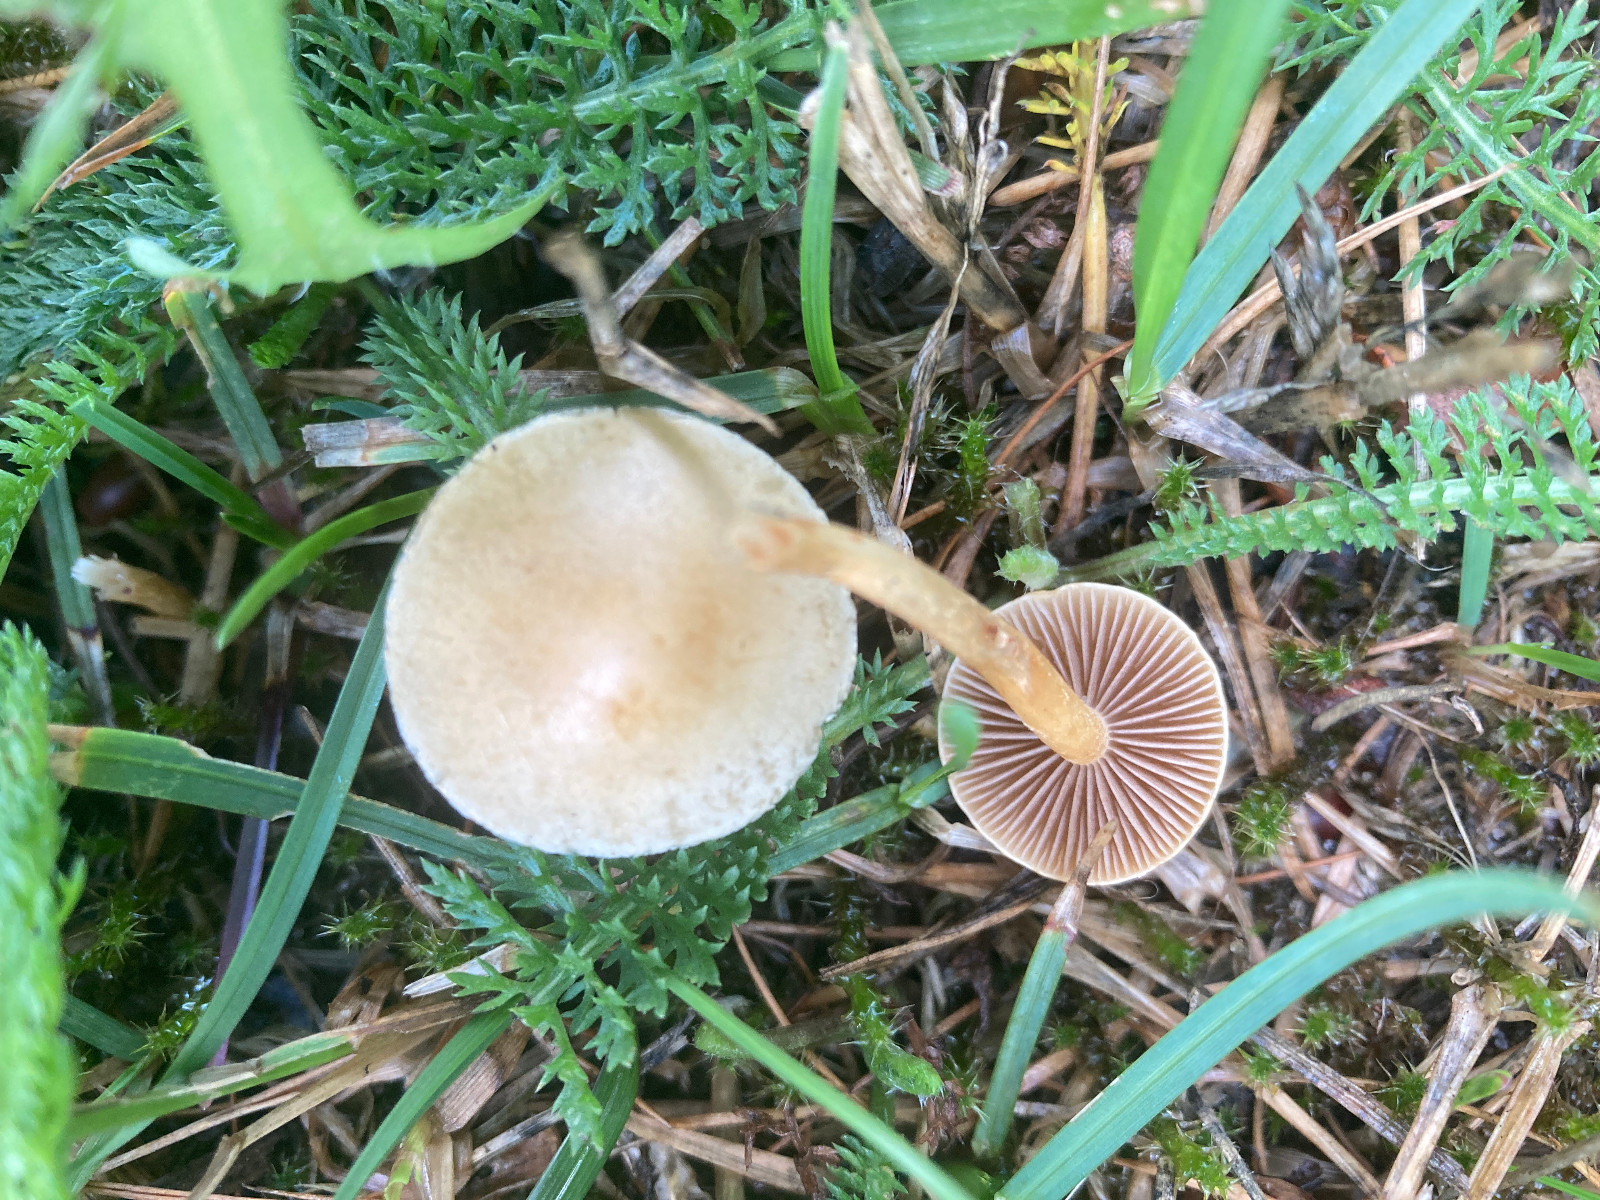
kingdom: Fungi
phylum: Basidiomycota
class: Agaricomycetes
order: Agaricales
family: Strophariaceae
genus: Agrocybe
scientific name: Agrocybe pediades
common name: almindelig agerhat
